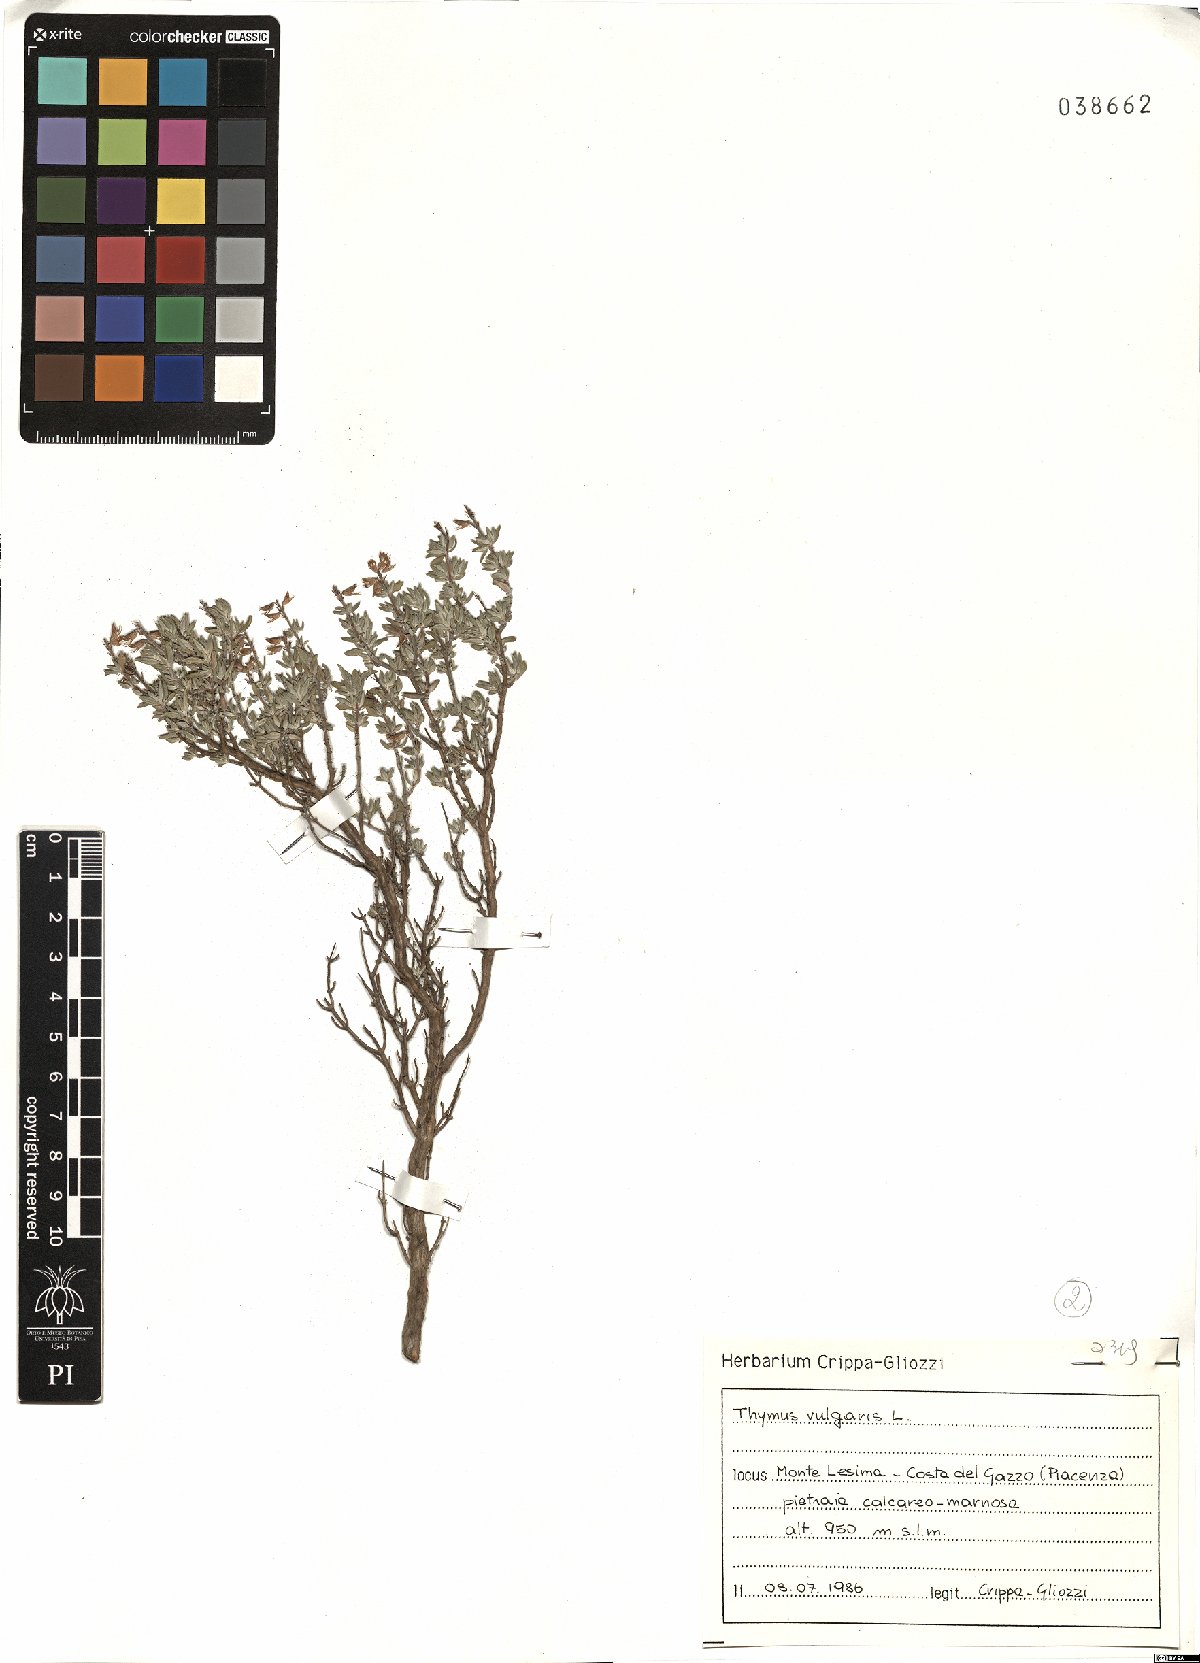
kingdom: Plantae
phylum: Tracheophyta
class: Magnoliopsida
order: Lamiales
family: Lamiaceae
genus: Thymus
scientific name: Thymus vulgaris
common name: Garden thyme
